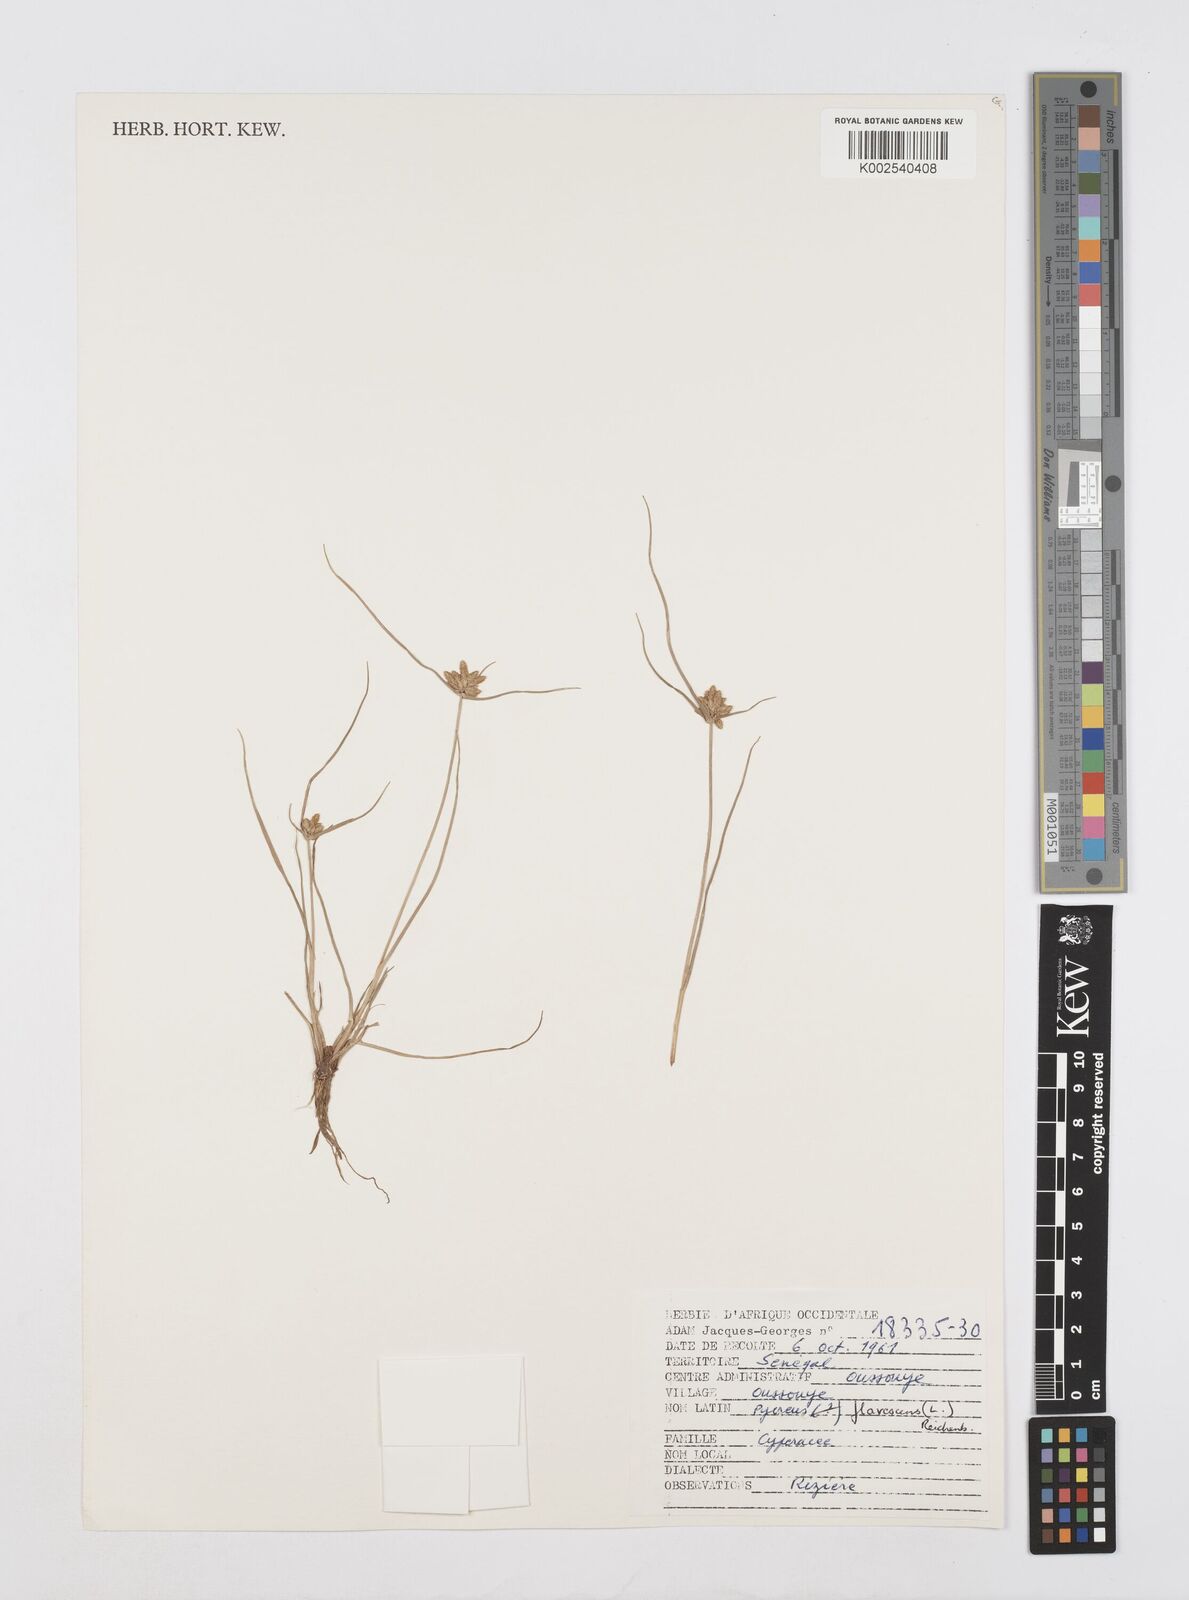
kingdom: Plantae
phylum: Tracheophyta
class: Liliopsida
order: Poales
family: Cyperaceae
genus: Cyperus
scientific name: Cyperus flavescens
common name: Yellow galingale
